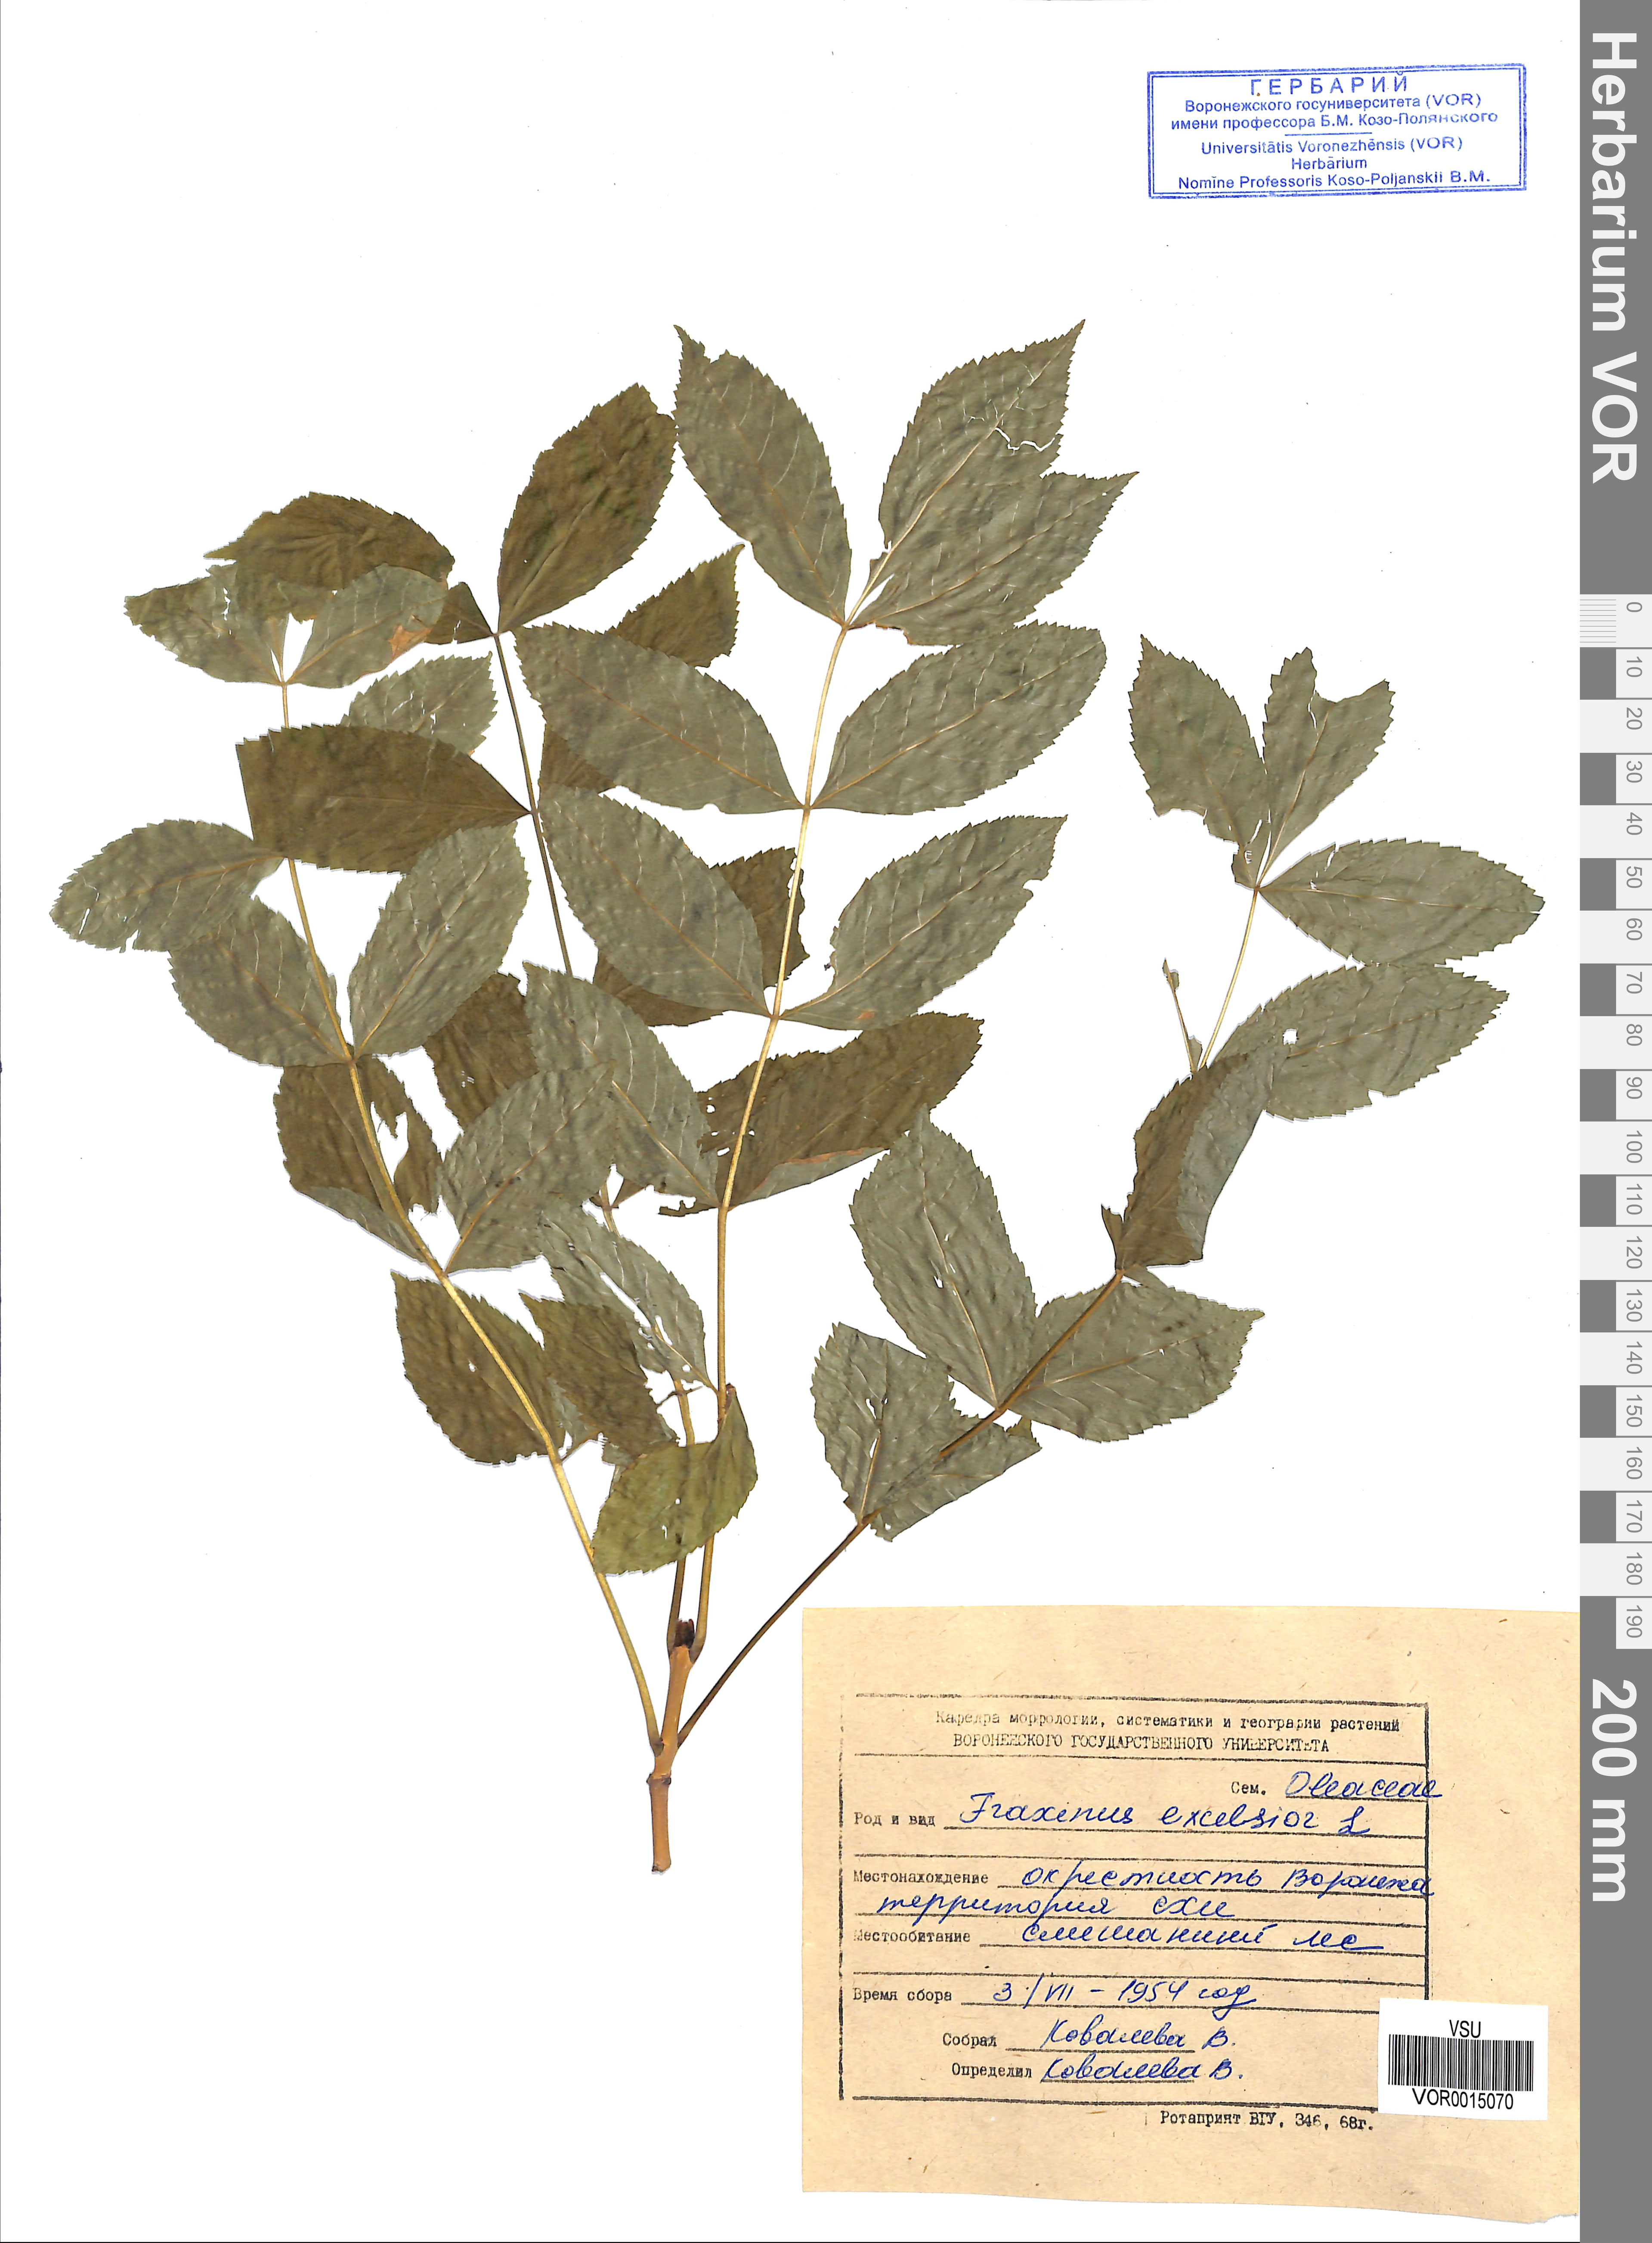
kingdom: Plantae
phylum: Tracheophyta
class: Magnoliopsida
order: Lamiales
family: Oleaceae
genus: Fraxinus
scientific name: Fraxinus excelsior
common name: European ash
